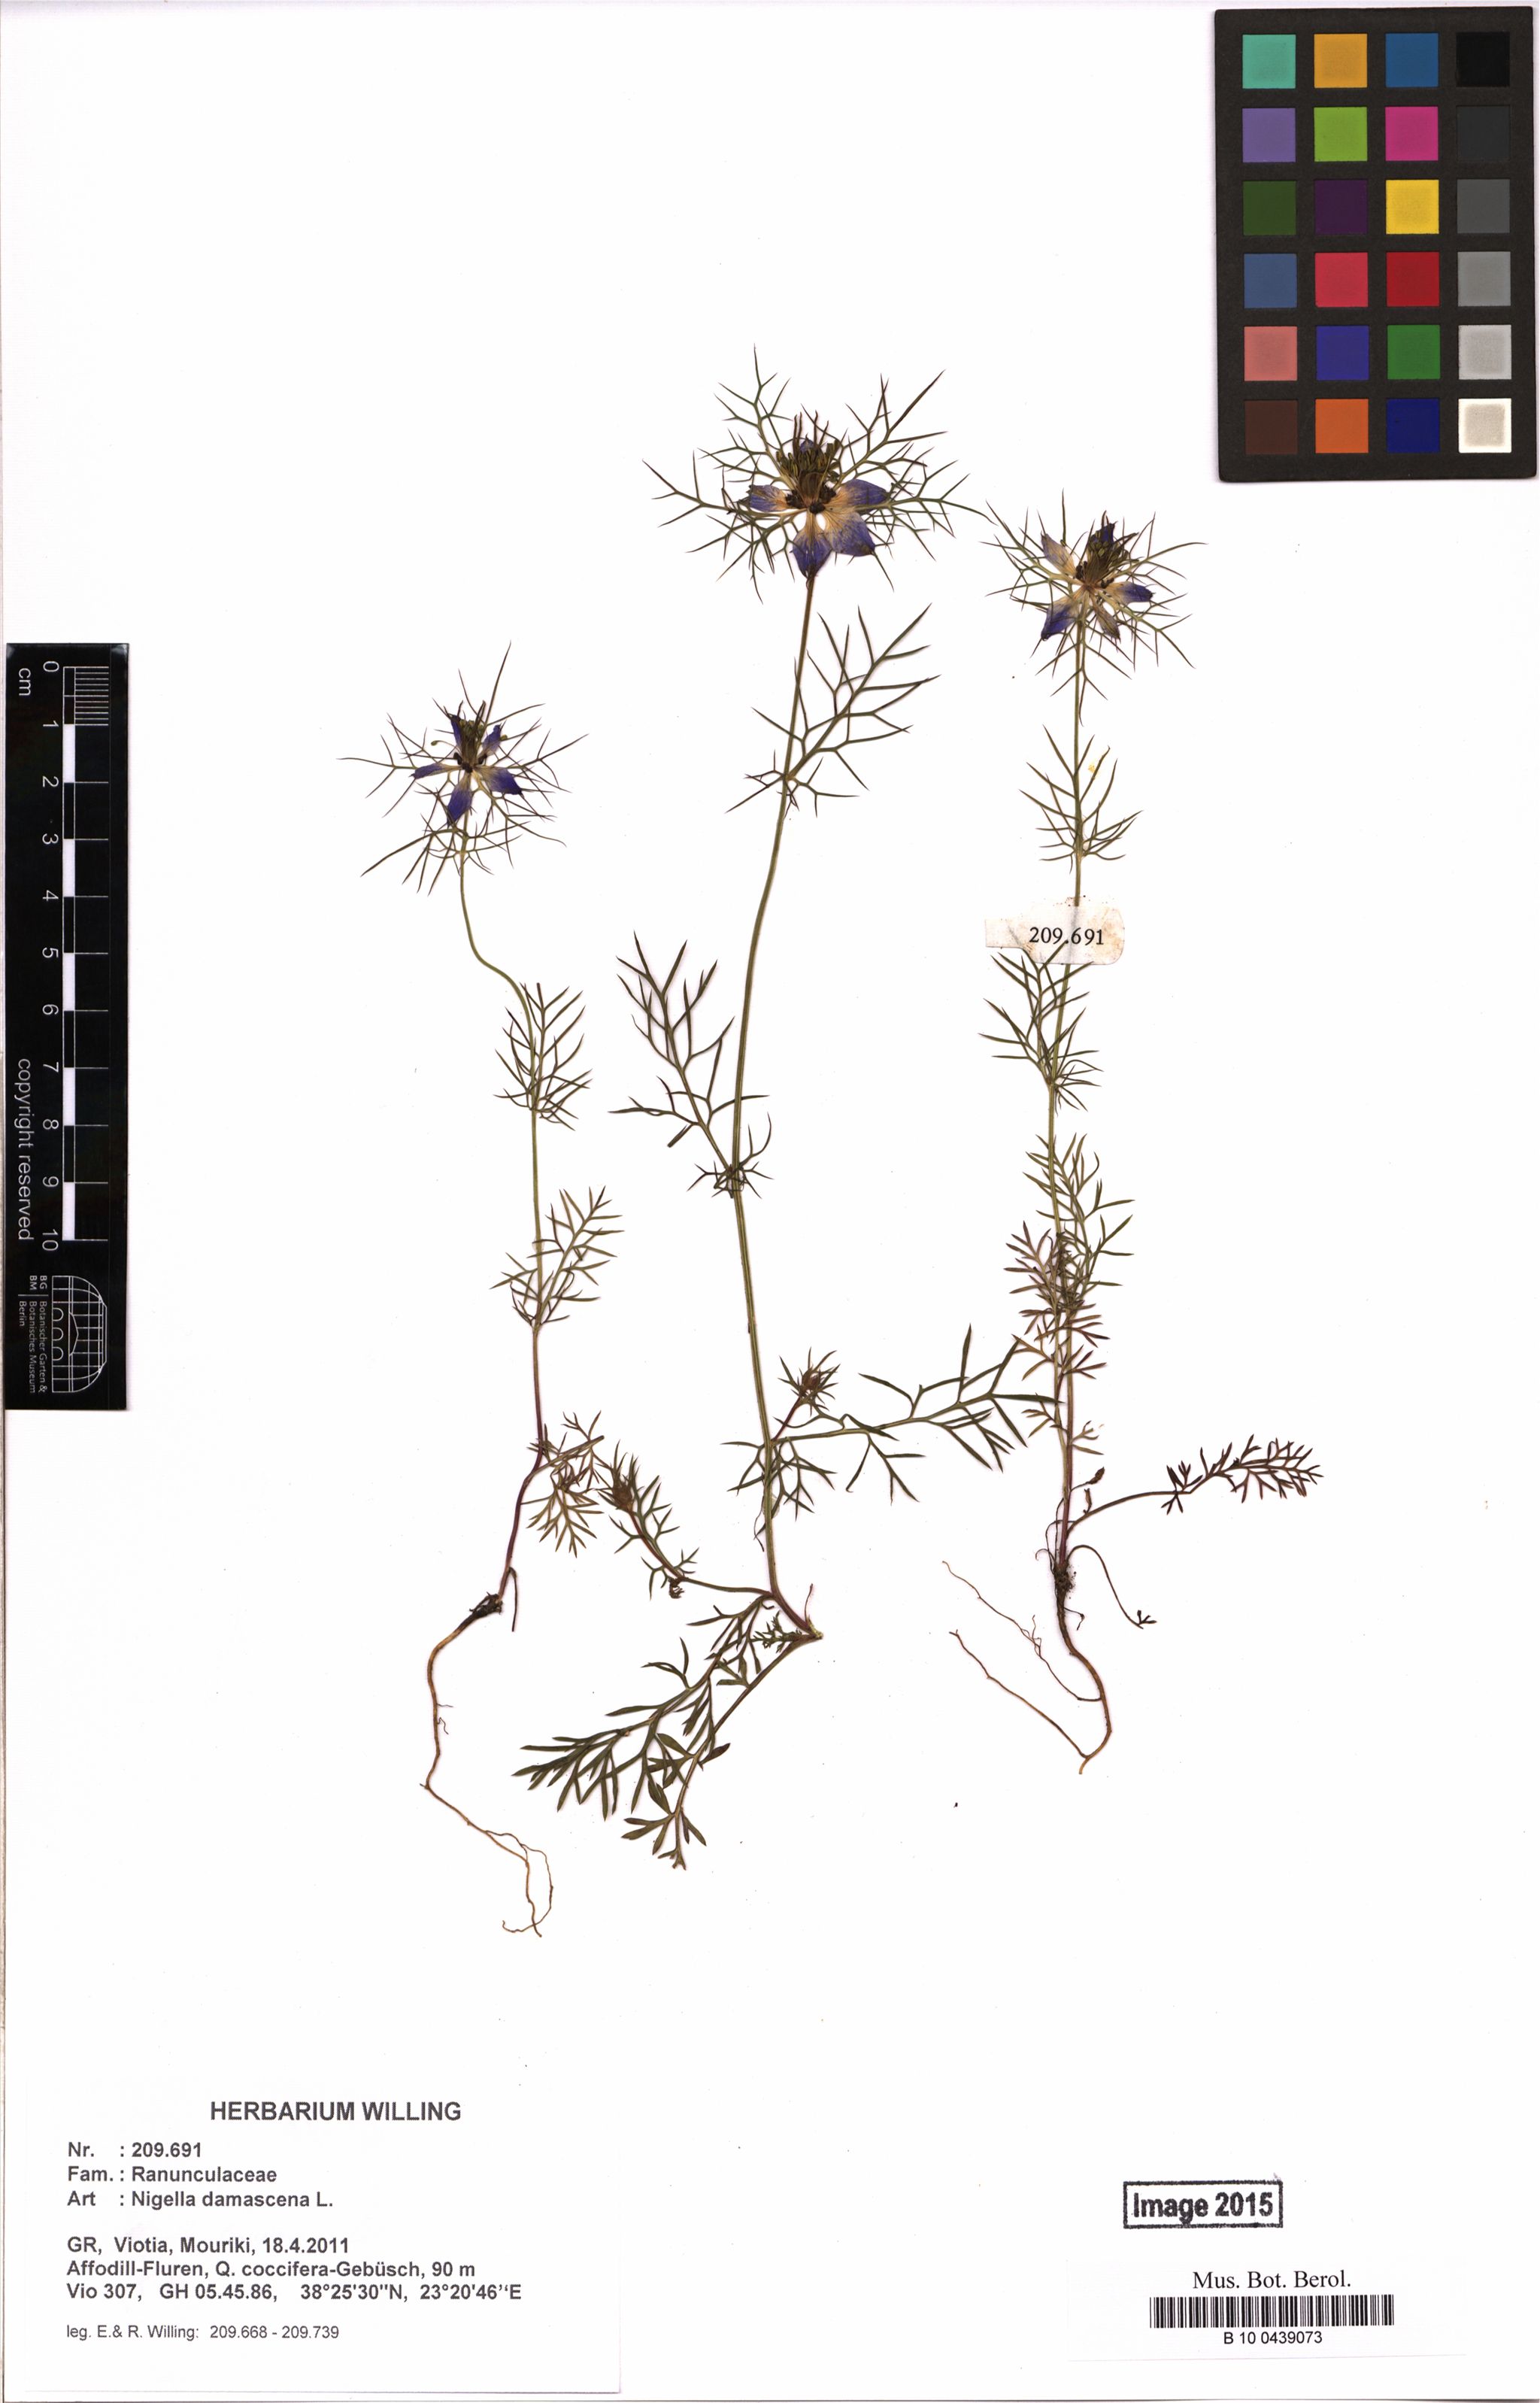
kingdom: Plantae
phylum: Tracheophyta
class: Magnoliopsida
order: Ranunculales
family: Ranunculaceae
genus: Nigella
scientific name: Nigella damascena
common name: Love-in-a-mist
